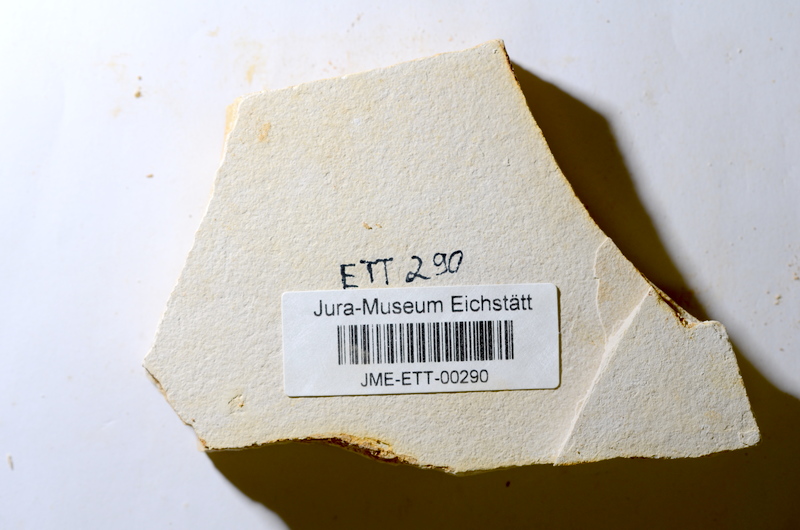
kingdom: Animalia
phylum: Chordata
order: Salmoniformes
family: Orthogonikleithridae
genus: Orthogonikleithrus
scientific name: Orthogonikleithrus hoelli
